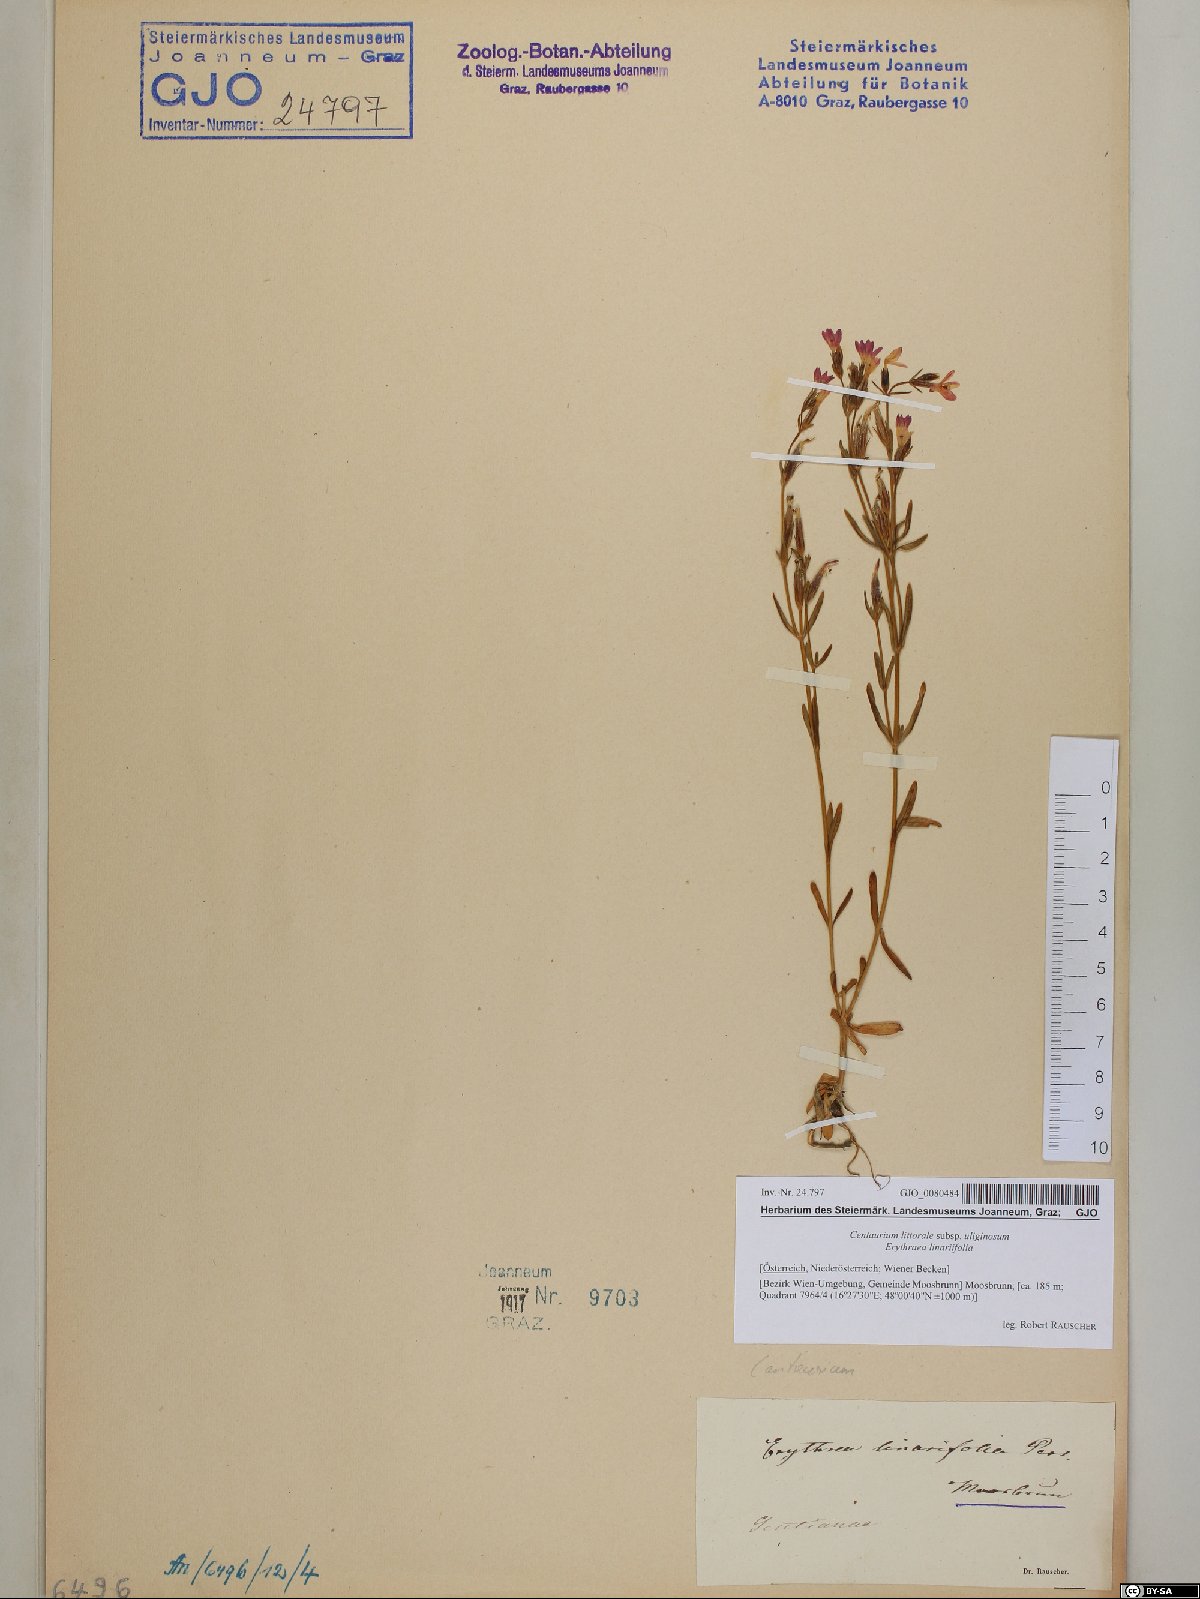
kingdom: Plantae
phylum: Tracheophyta
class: Magnoliopsida
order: Gentianales
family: Gentianaceae
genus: Centaurium
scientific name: Centaurium littorale
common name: Seaside centaury
